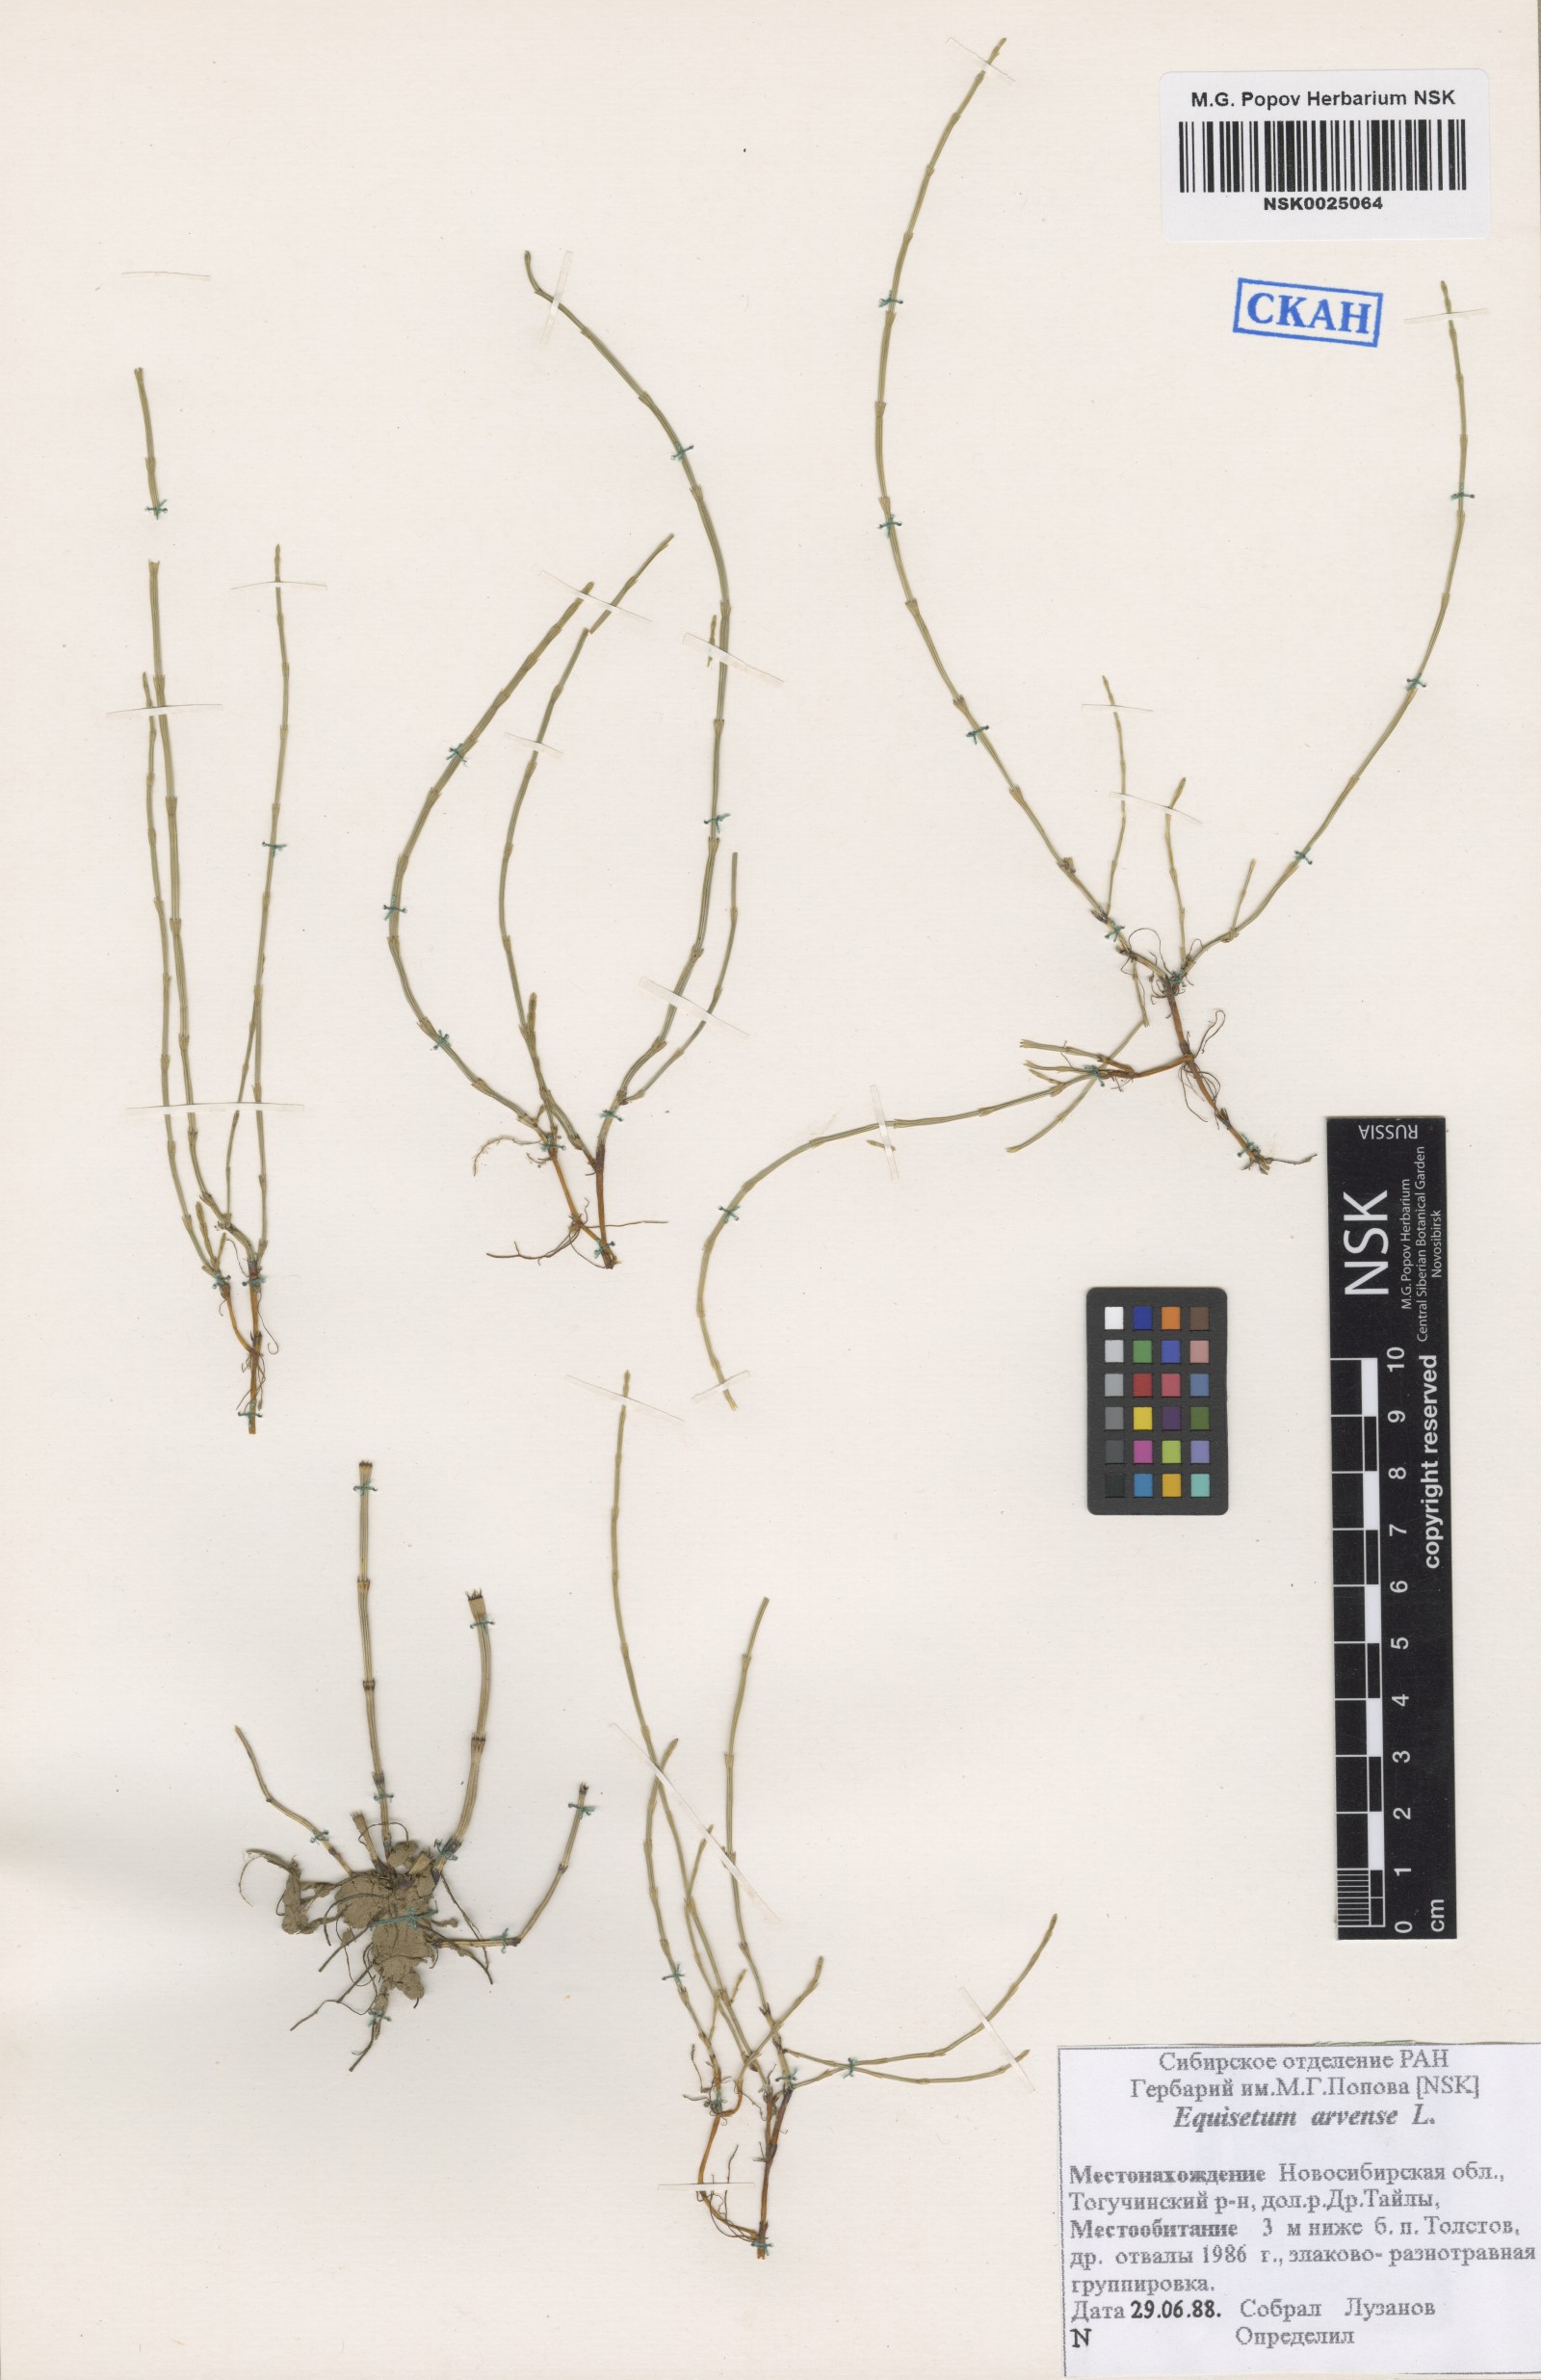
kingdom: Plantae
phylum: Tracheophyta
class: Polypodiopsida
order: Equisetales
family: Equisetaceae
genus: Equisetum
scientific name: Equisetum arvense
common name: Field horsetail
